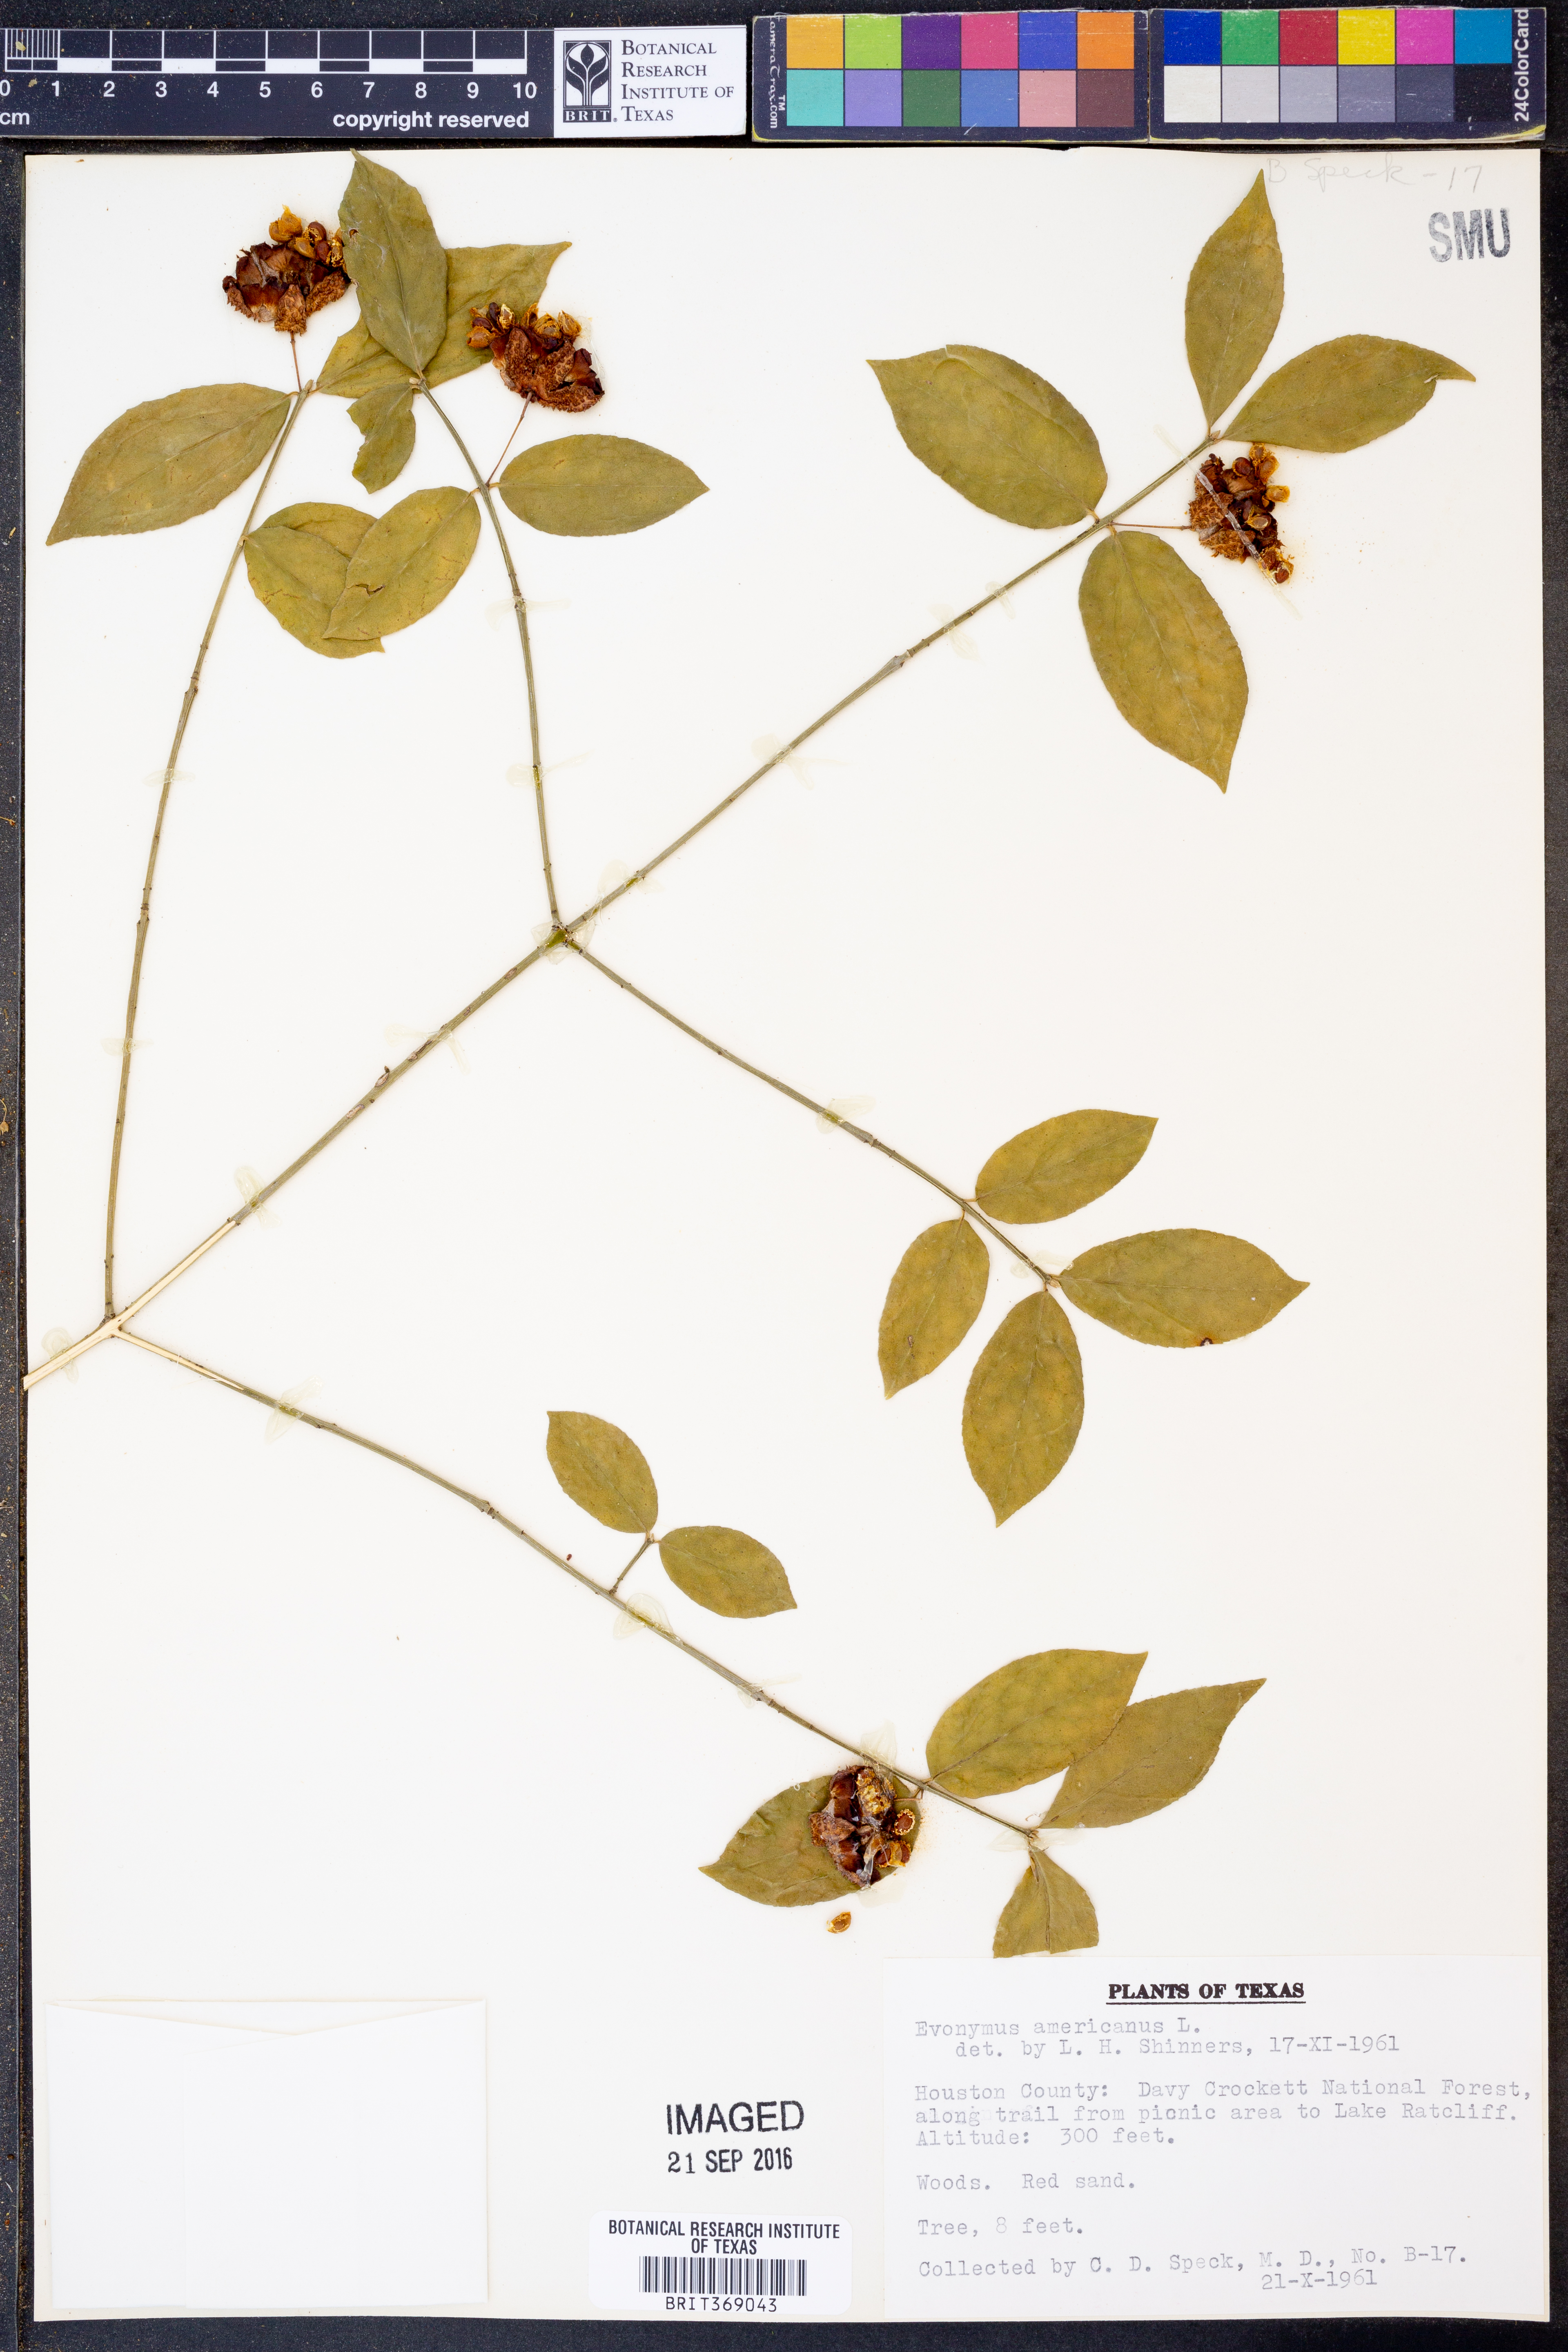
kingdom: Plantae
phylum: Tracheophyta
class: Magnoliopsida
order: Celastrales
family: Celastraceae
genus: Euonymus
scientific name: Euonymus americanus
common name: Bursting-heart
